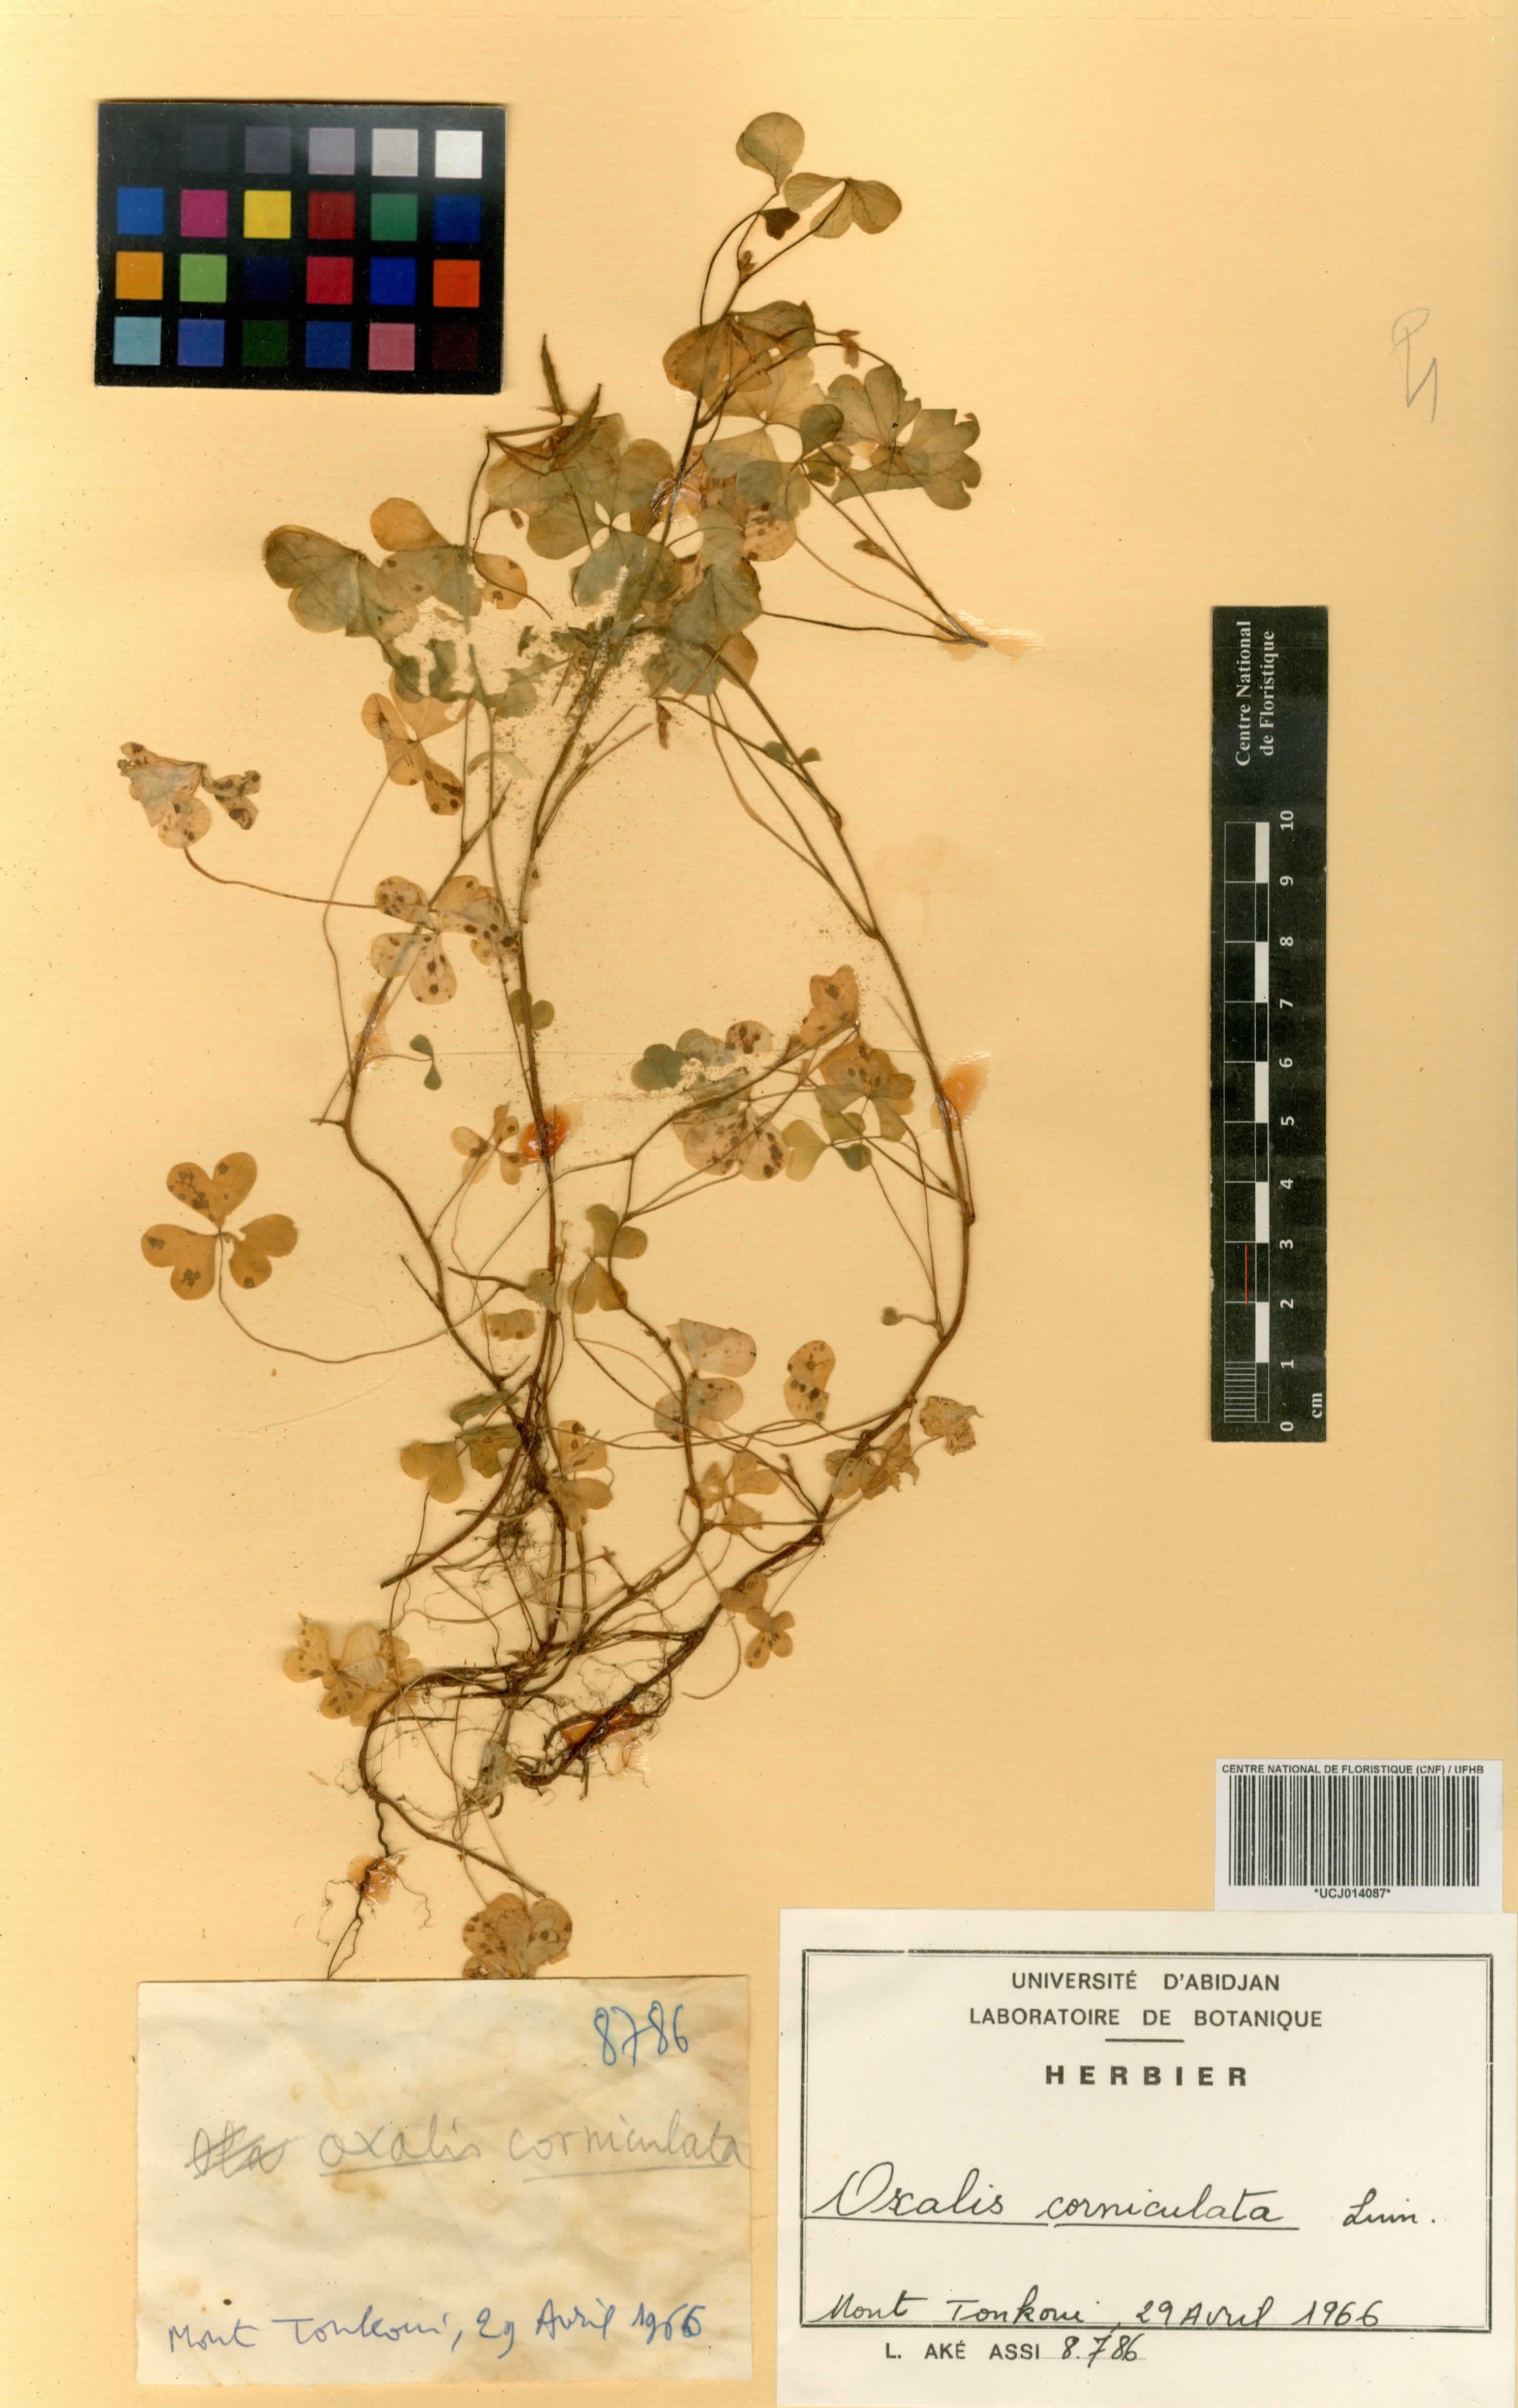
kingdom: Plantae
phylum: Tracheophyta
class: Magnoliopsida
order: Oxalidales
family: Oxalidaceae
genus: Oxalis
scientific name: Oxalis corniculata
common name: Procumbent yellow-sorrel
